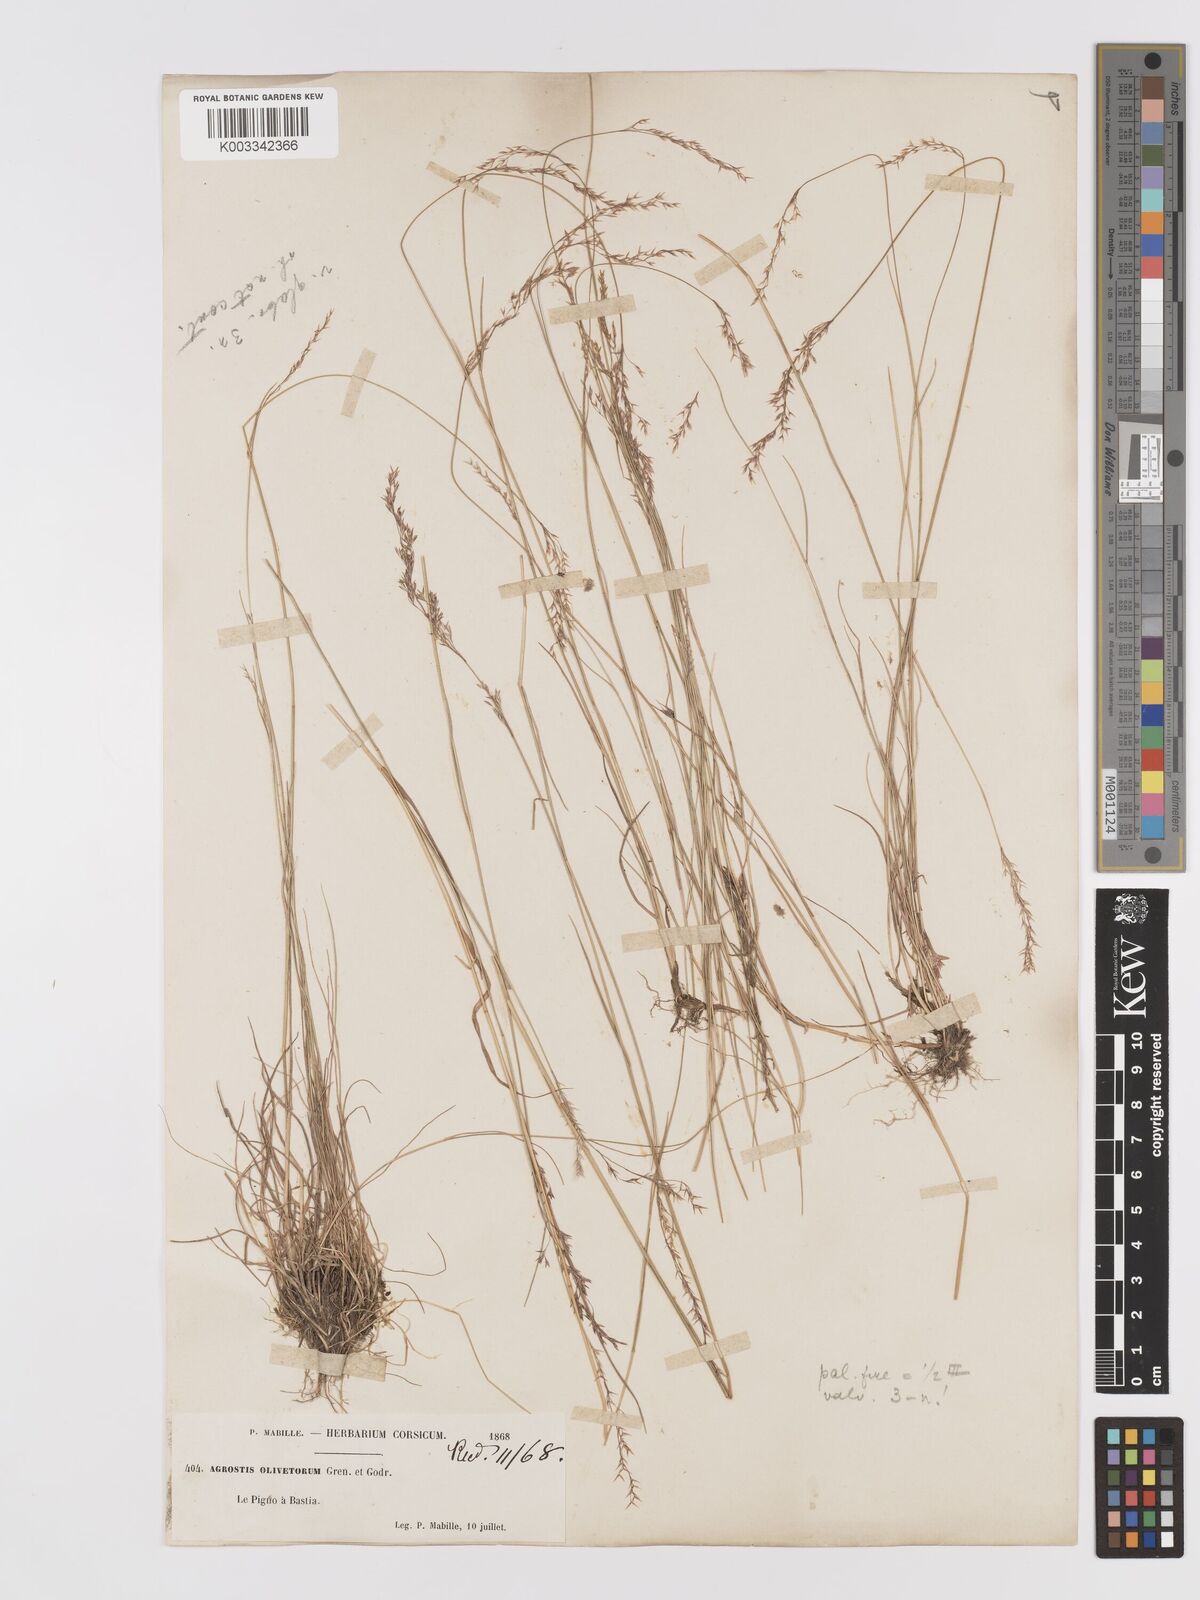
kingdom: Plantae
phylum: Tracheophyta
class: Liliopsida
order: Poales
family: Poaceae
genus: Agrostis
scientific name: Agrostis castellana
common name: Highland bent
